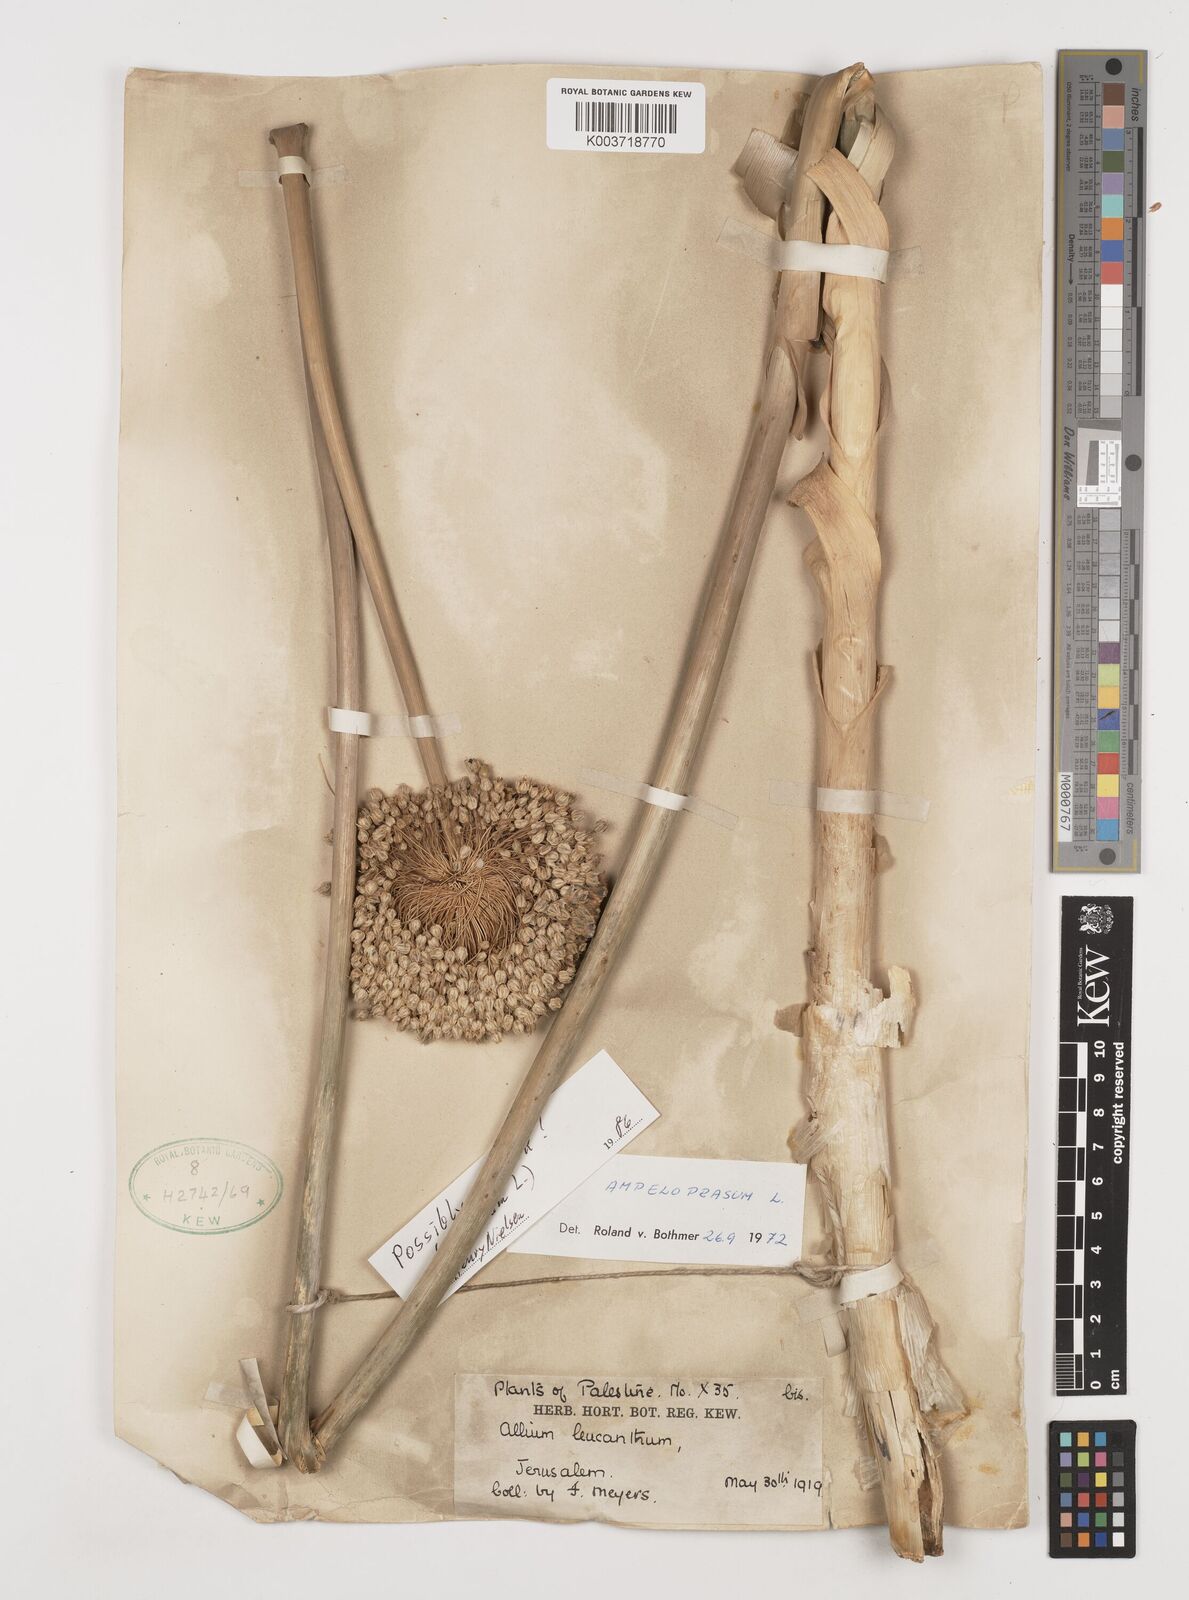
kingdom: Plantae
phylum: Tracheophyta
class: Liliopsida
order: Asparagales
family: Amaryllidaceae
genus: Allium
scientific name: Allium rotundum
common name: Sand leek
